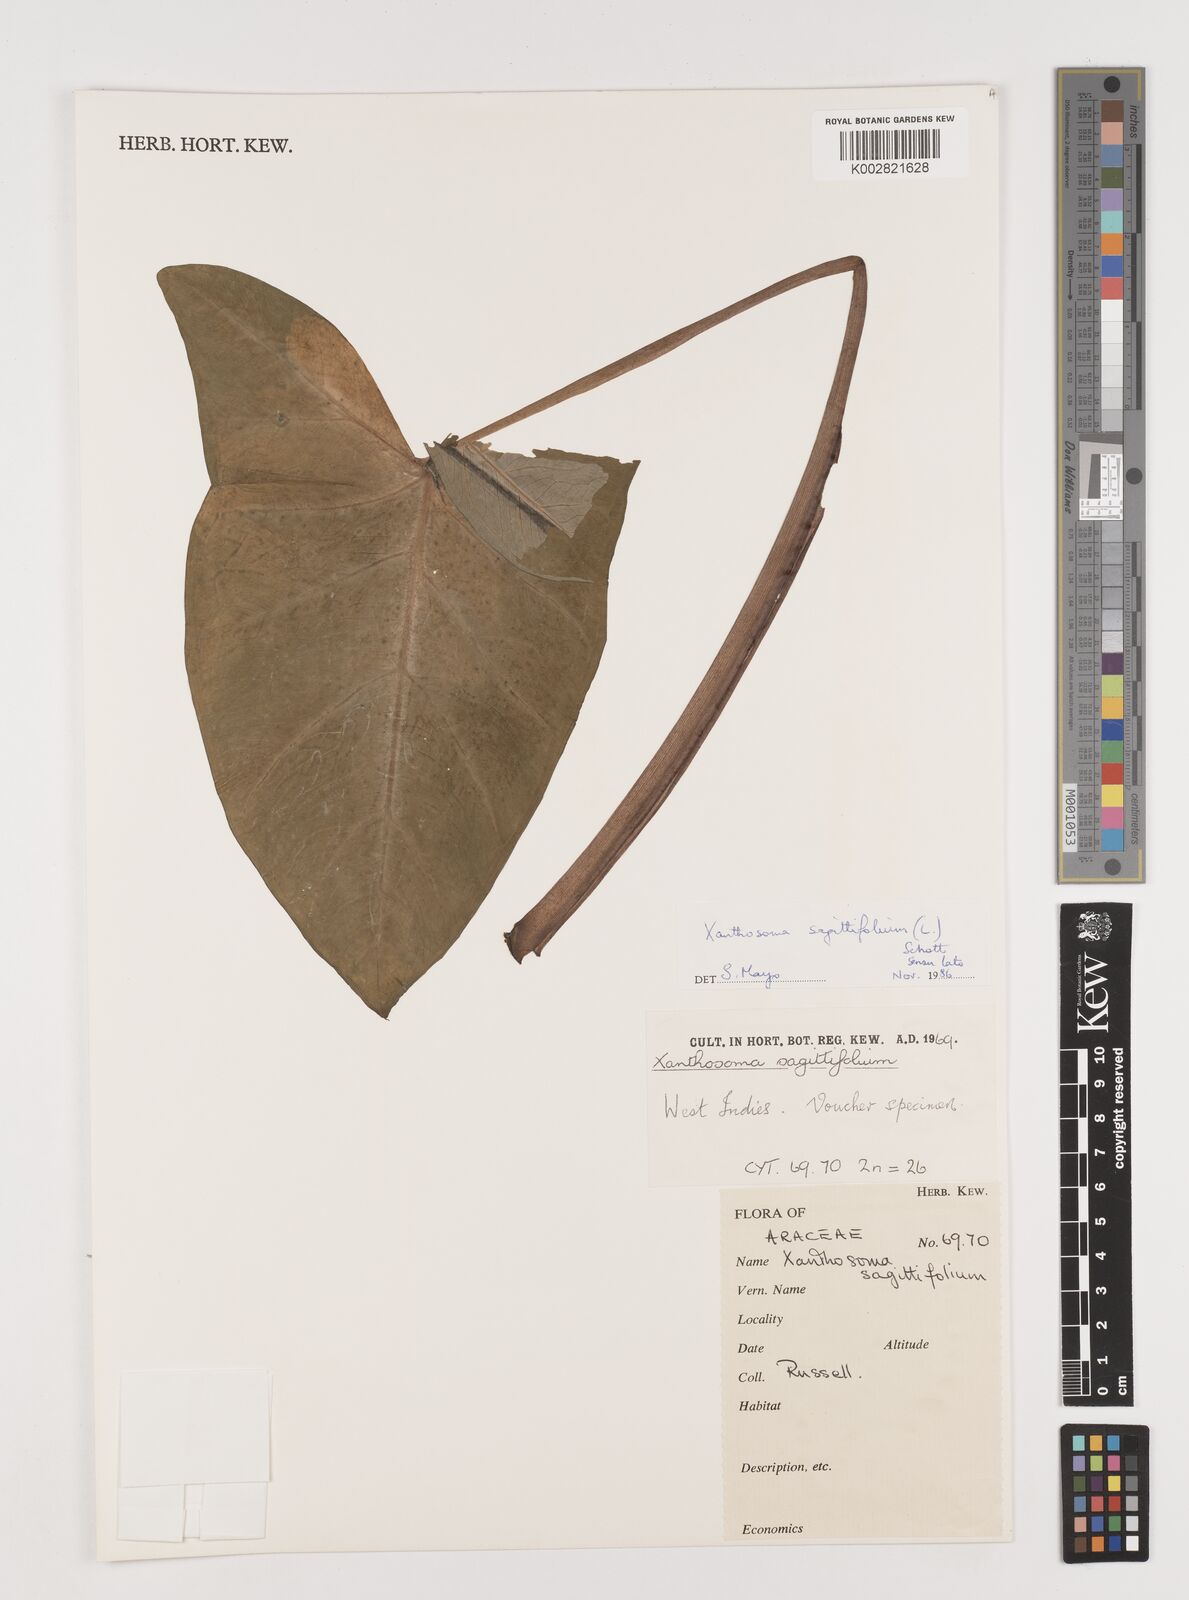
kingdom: Plantae
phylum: Tracheophyta
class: Liliopsida
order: Alismatales
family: Araceae
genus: Xanthosoma
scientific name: Xanthosoma sagittifolium
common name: Arrowleaf elephant's ear
